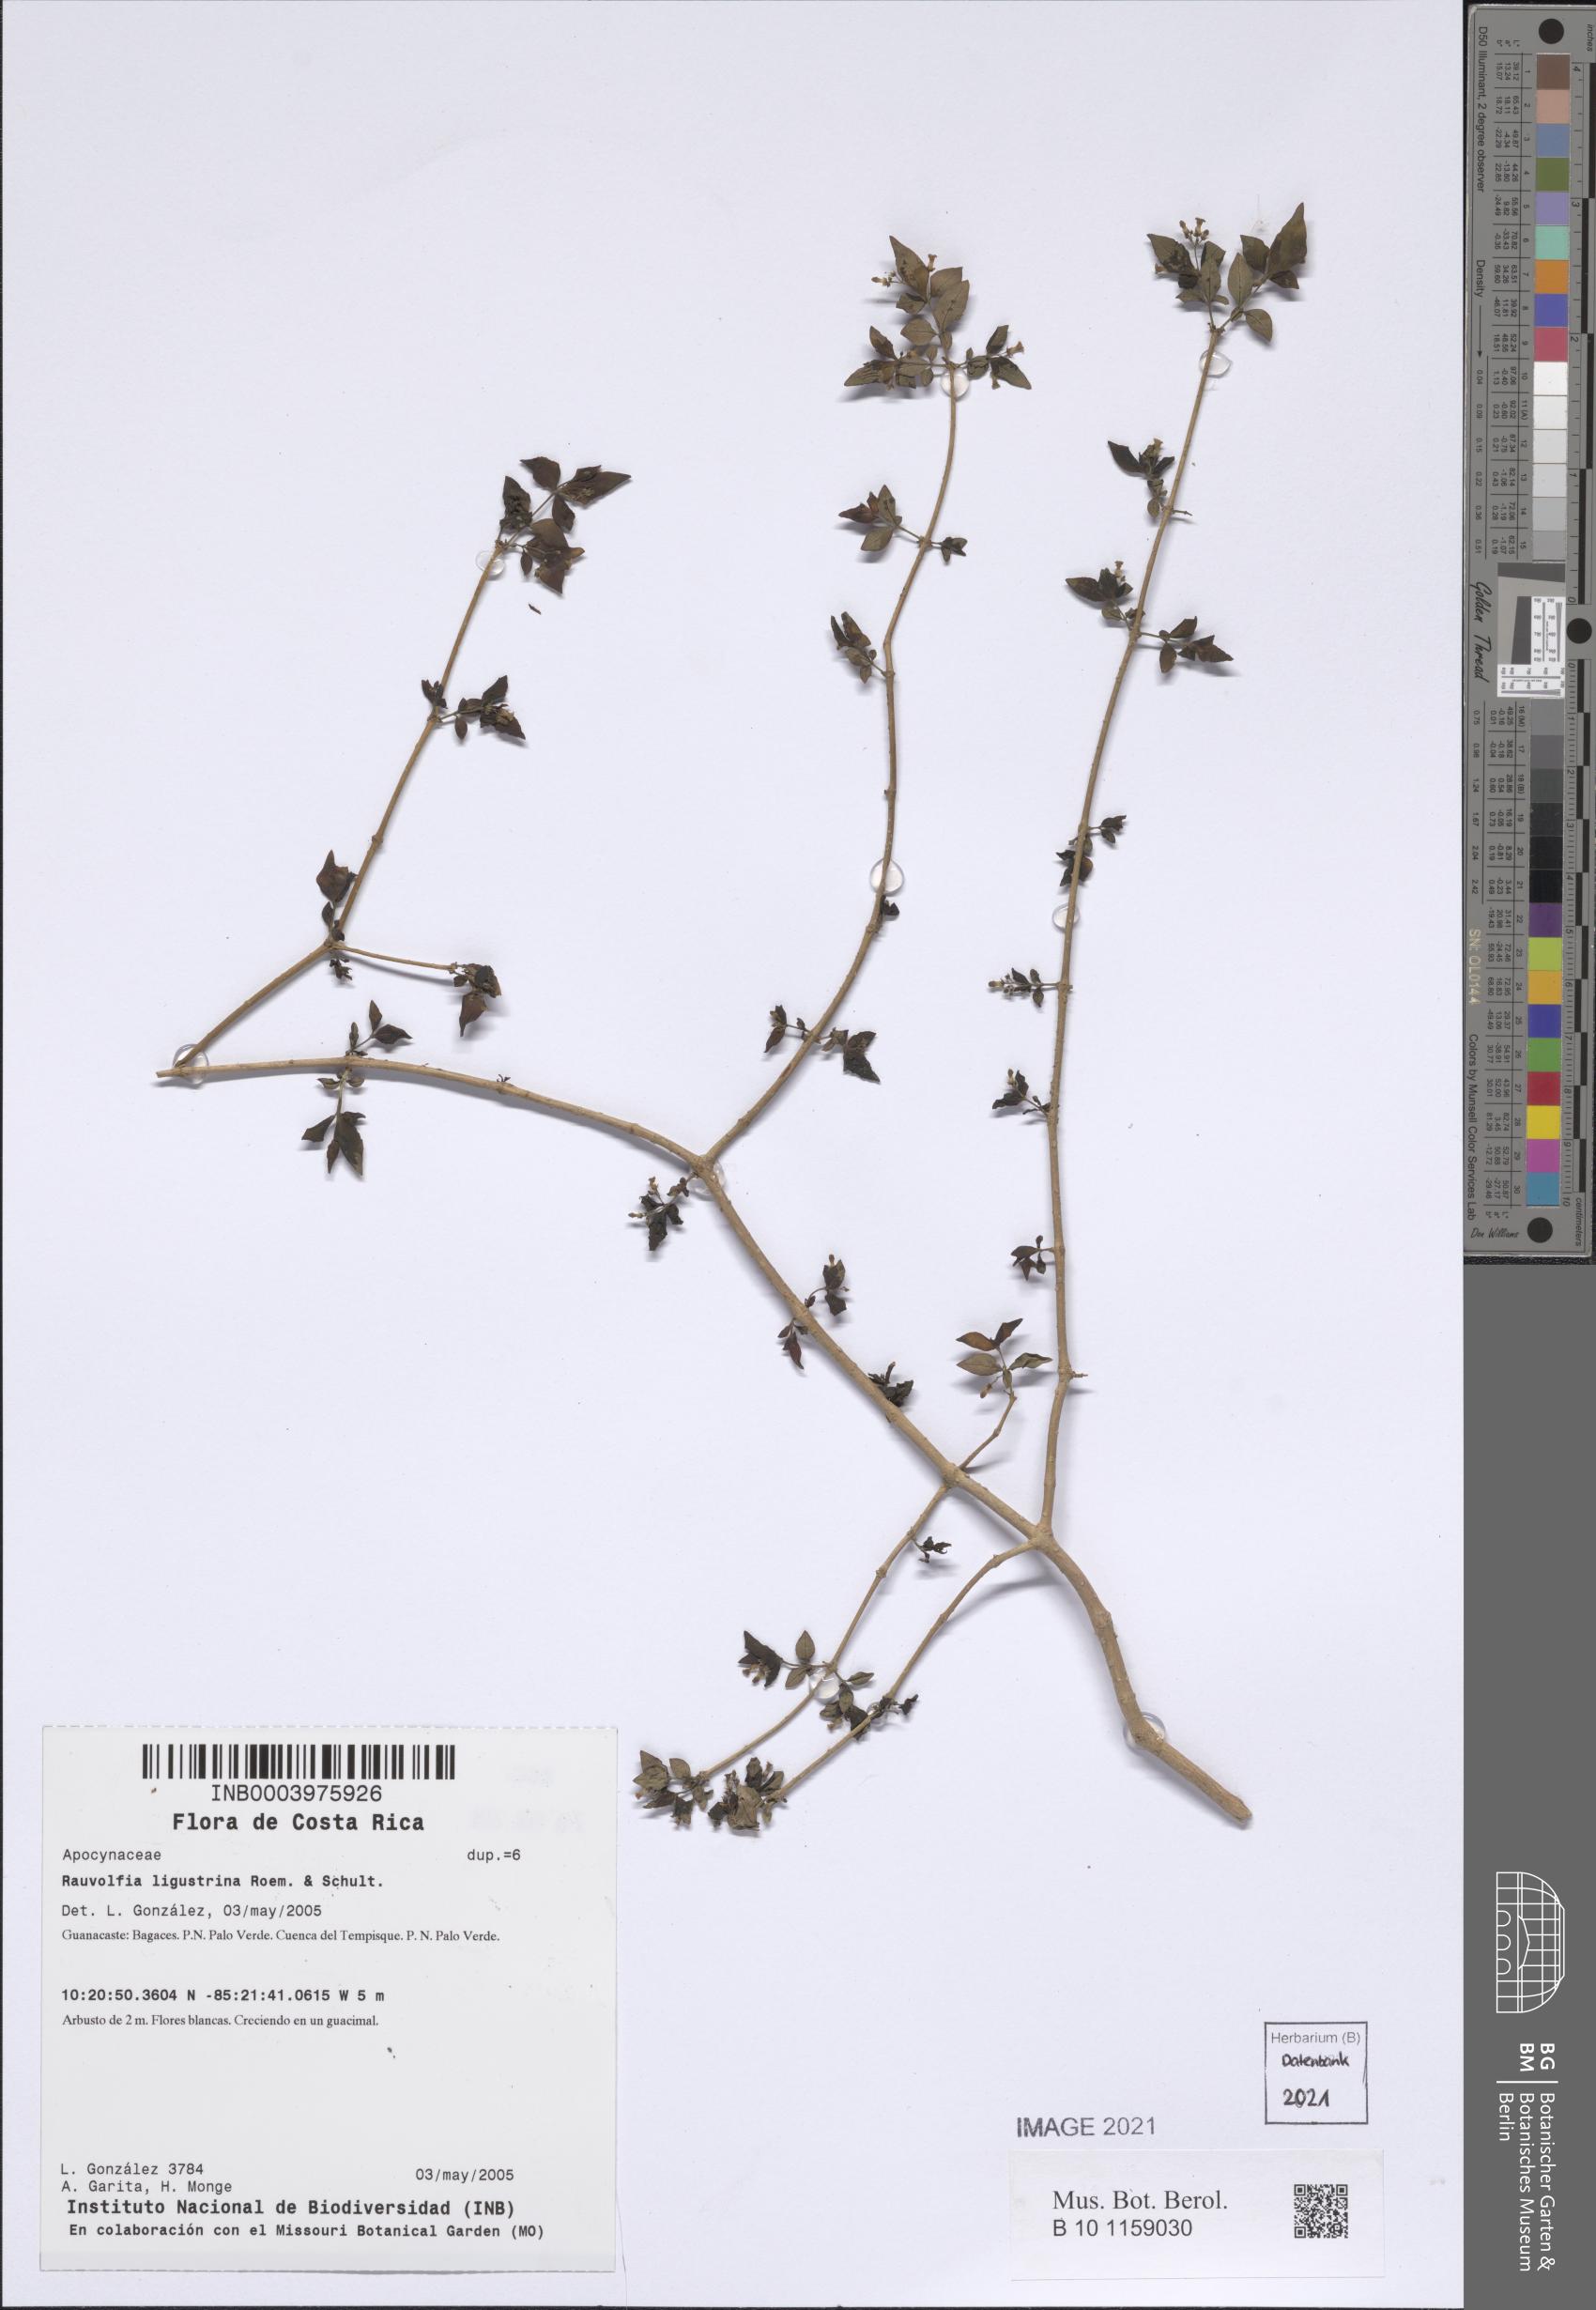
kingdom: Plantae
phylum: Tracheophyta
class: Magnoliopsida
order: Gentianales
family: Apocynaceae
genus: Rauvolfia
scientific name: Rauvolfia ligustrina
